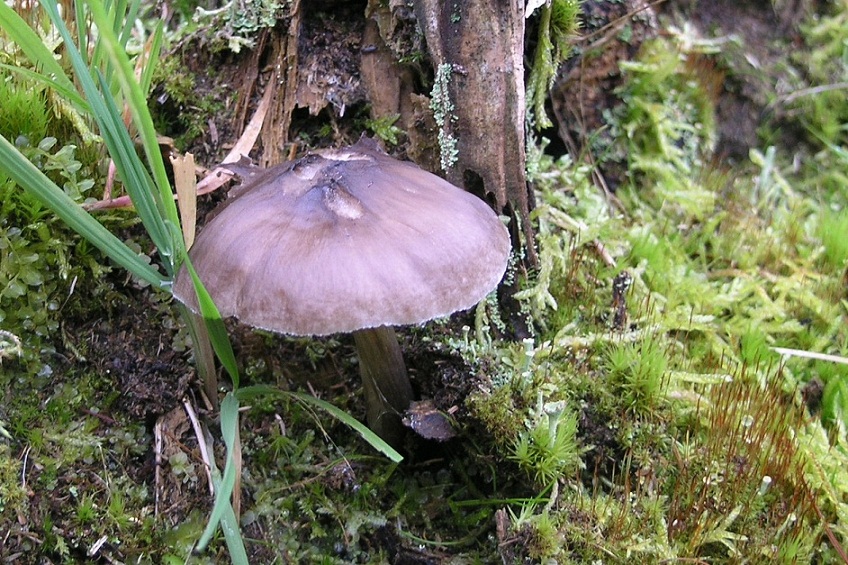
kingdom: Fungi
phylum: Basidiomycota
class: Agaricomycetes
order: Agaricales
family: Pluteaceae
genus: Pluteus
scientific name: Pluteus pouzarianus
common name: plantage-skærmhat
